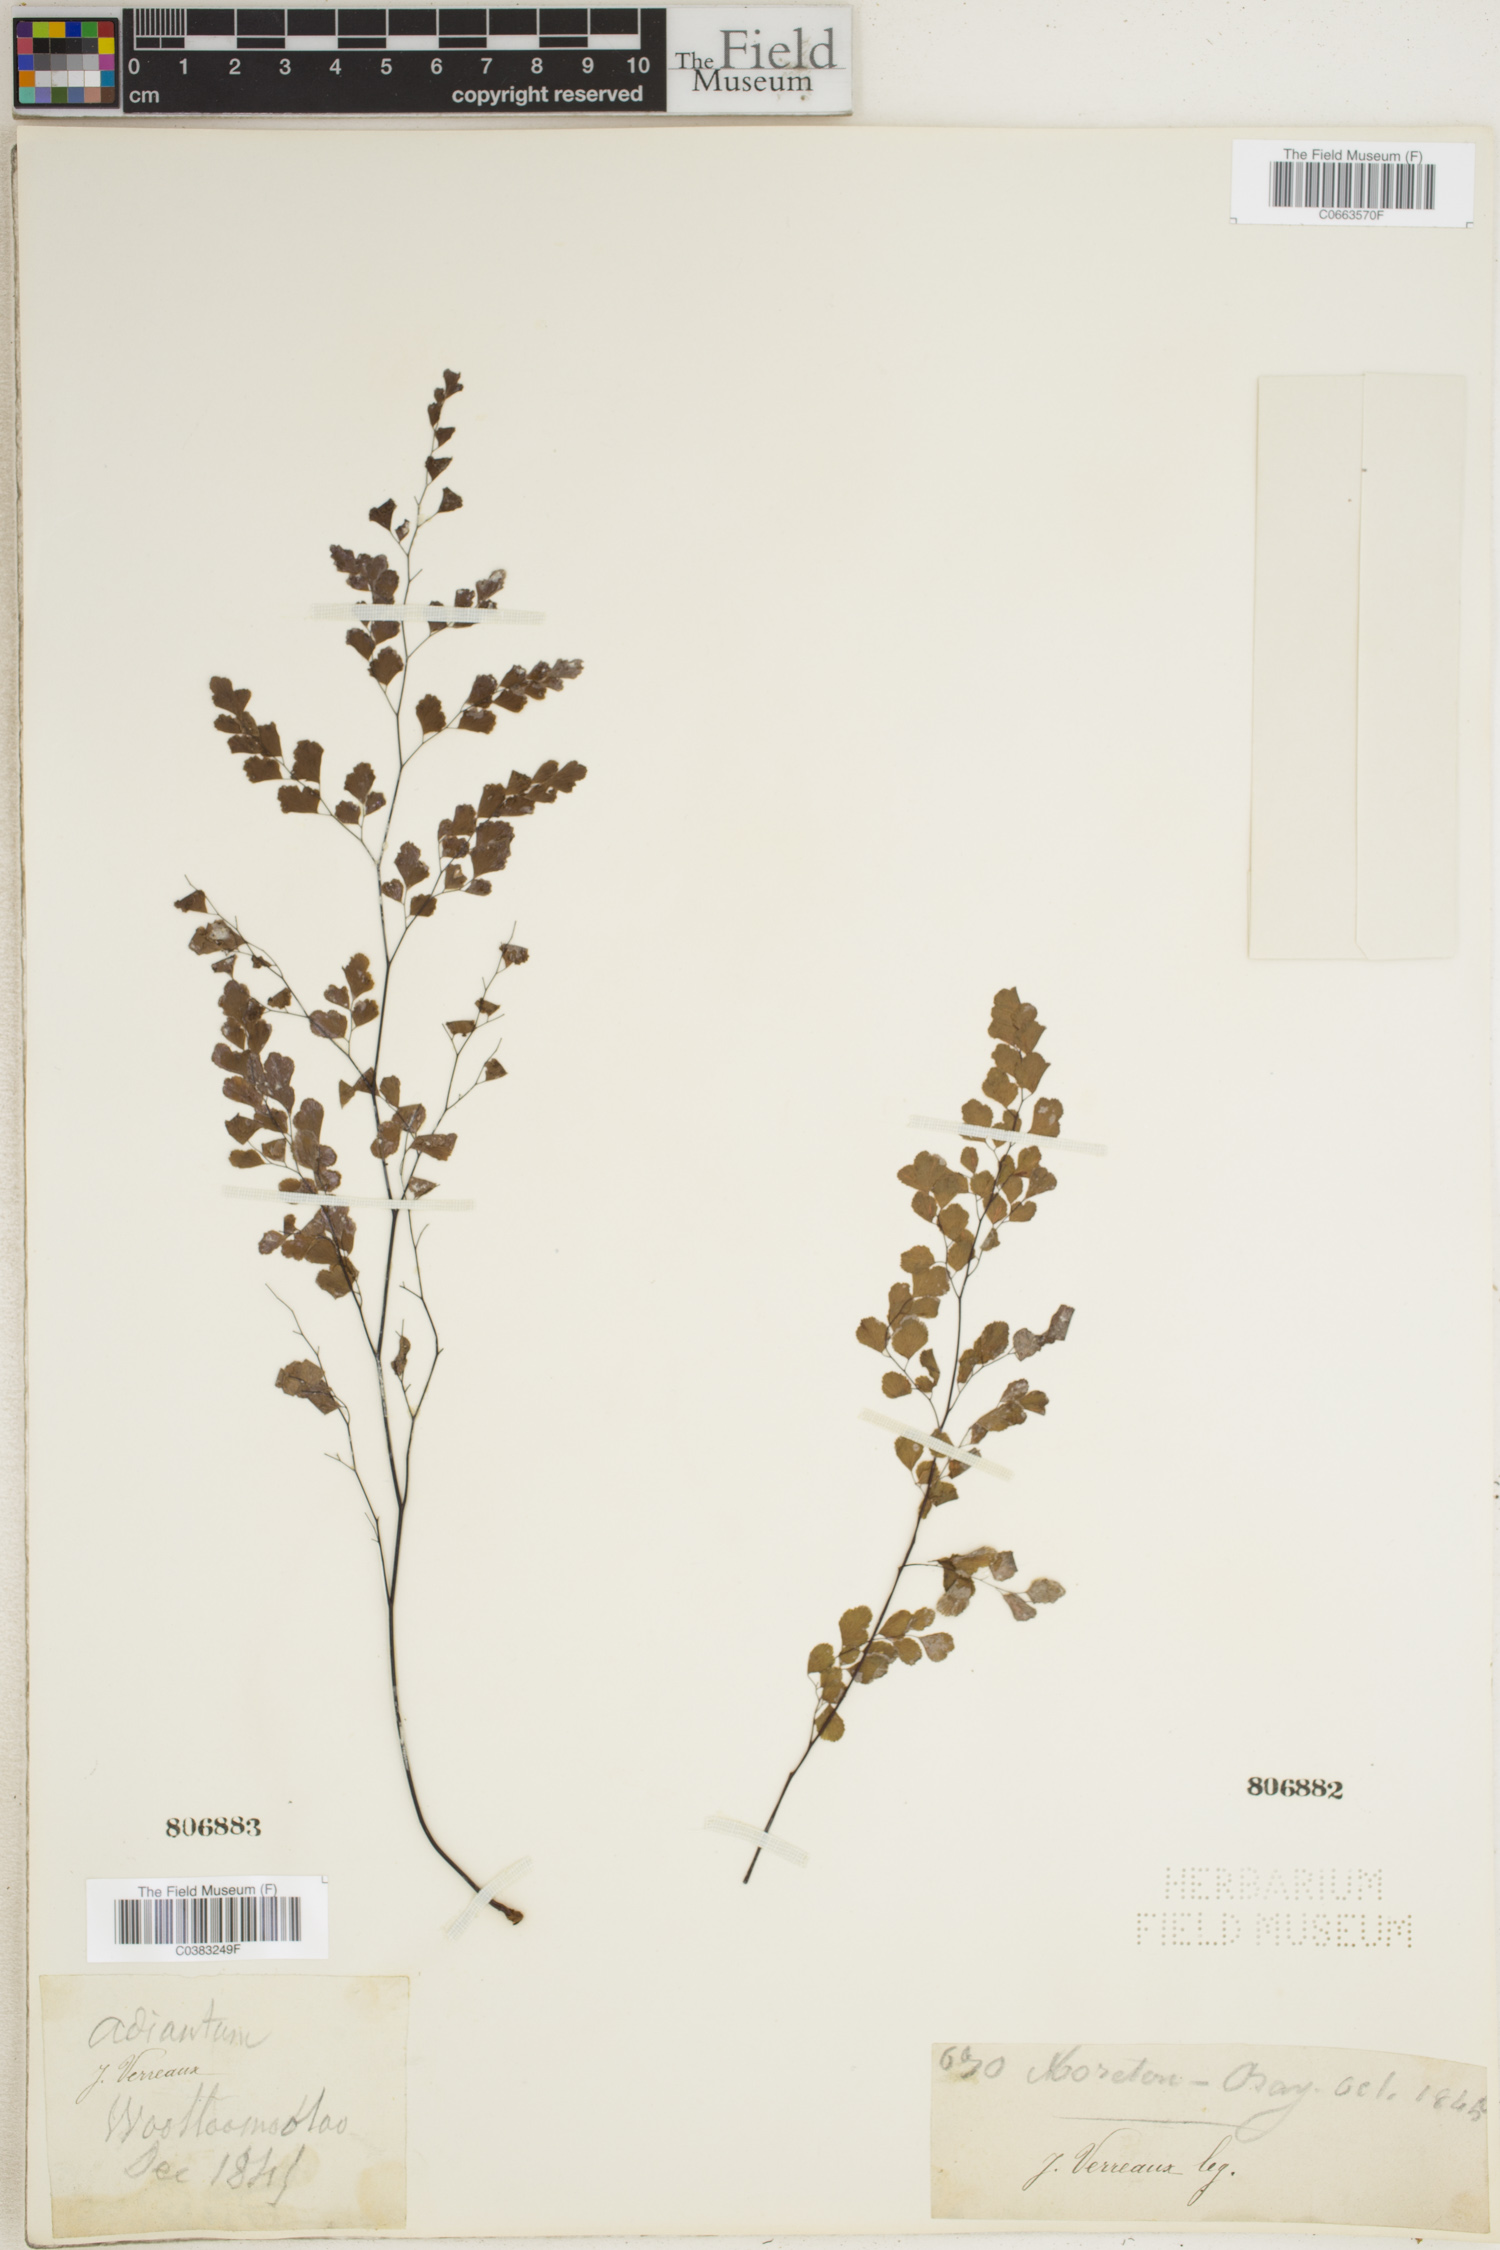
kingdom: Plantae
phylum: Tracheophyta
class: Polypodiopsida
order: Polypodiales
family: Pteridaceae
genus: Adiantum
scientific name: Adiantum
